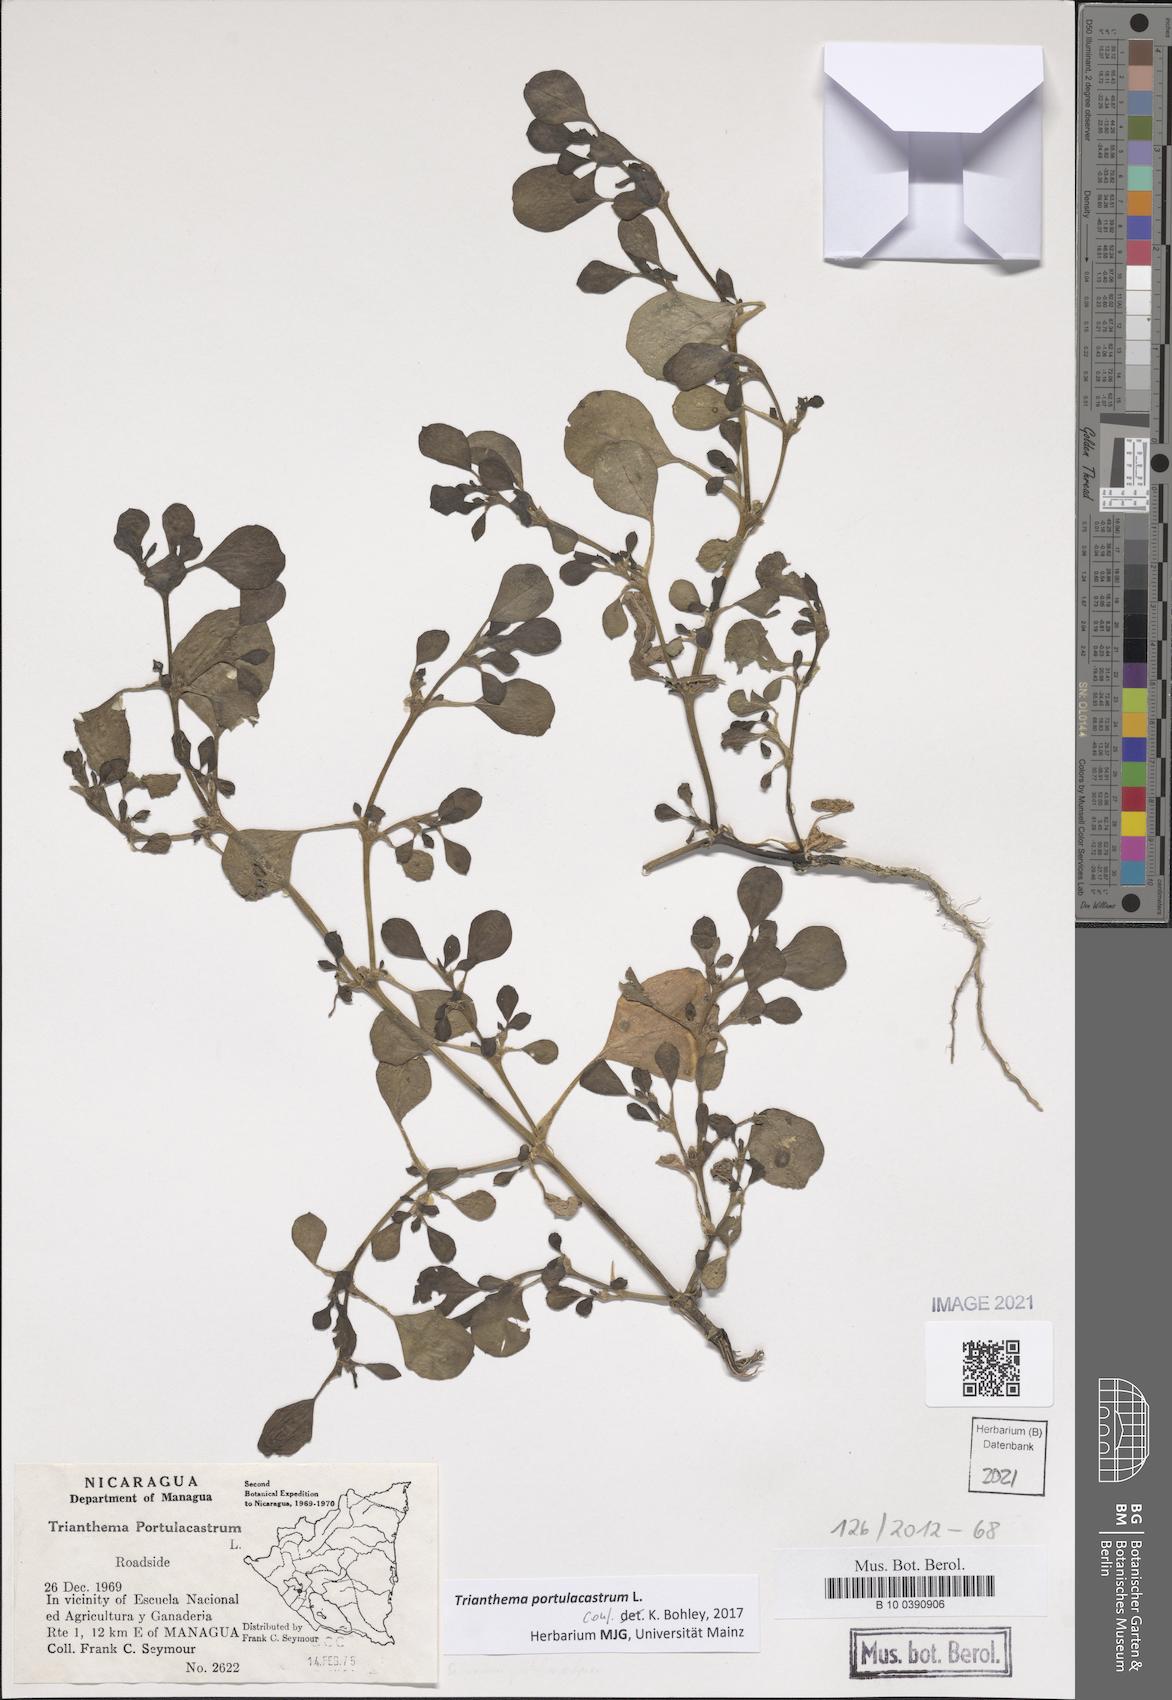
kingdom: Plantae
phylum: Tracheophyta
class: Magnoliopsida
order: Caryophyllales
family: Aizoaceae
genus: Trianthema
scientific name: Trianthema portulacastrum
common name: Desert horsepurslane
